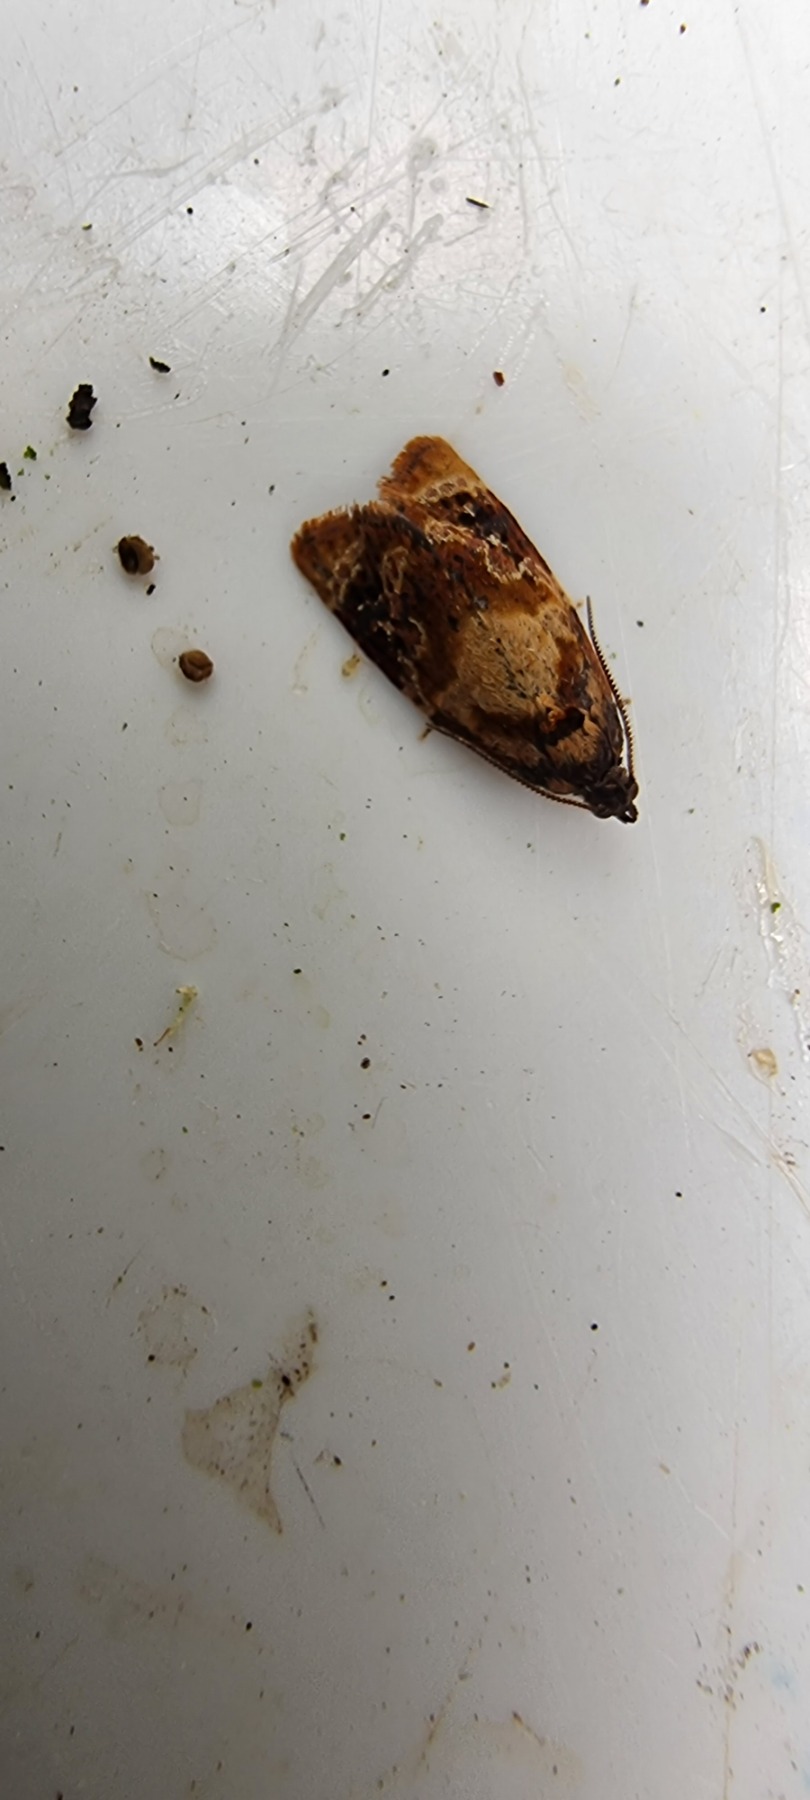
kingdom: Animalia
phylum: Arthropoda
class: Insecta
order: Lepidoptera
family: Tortricidae
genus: Ditula
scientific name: Ditula angustiorana
